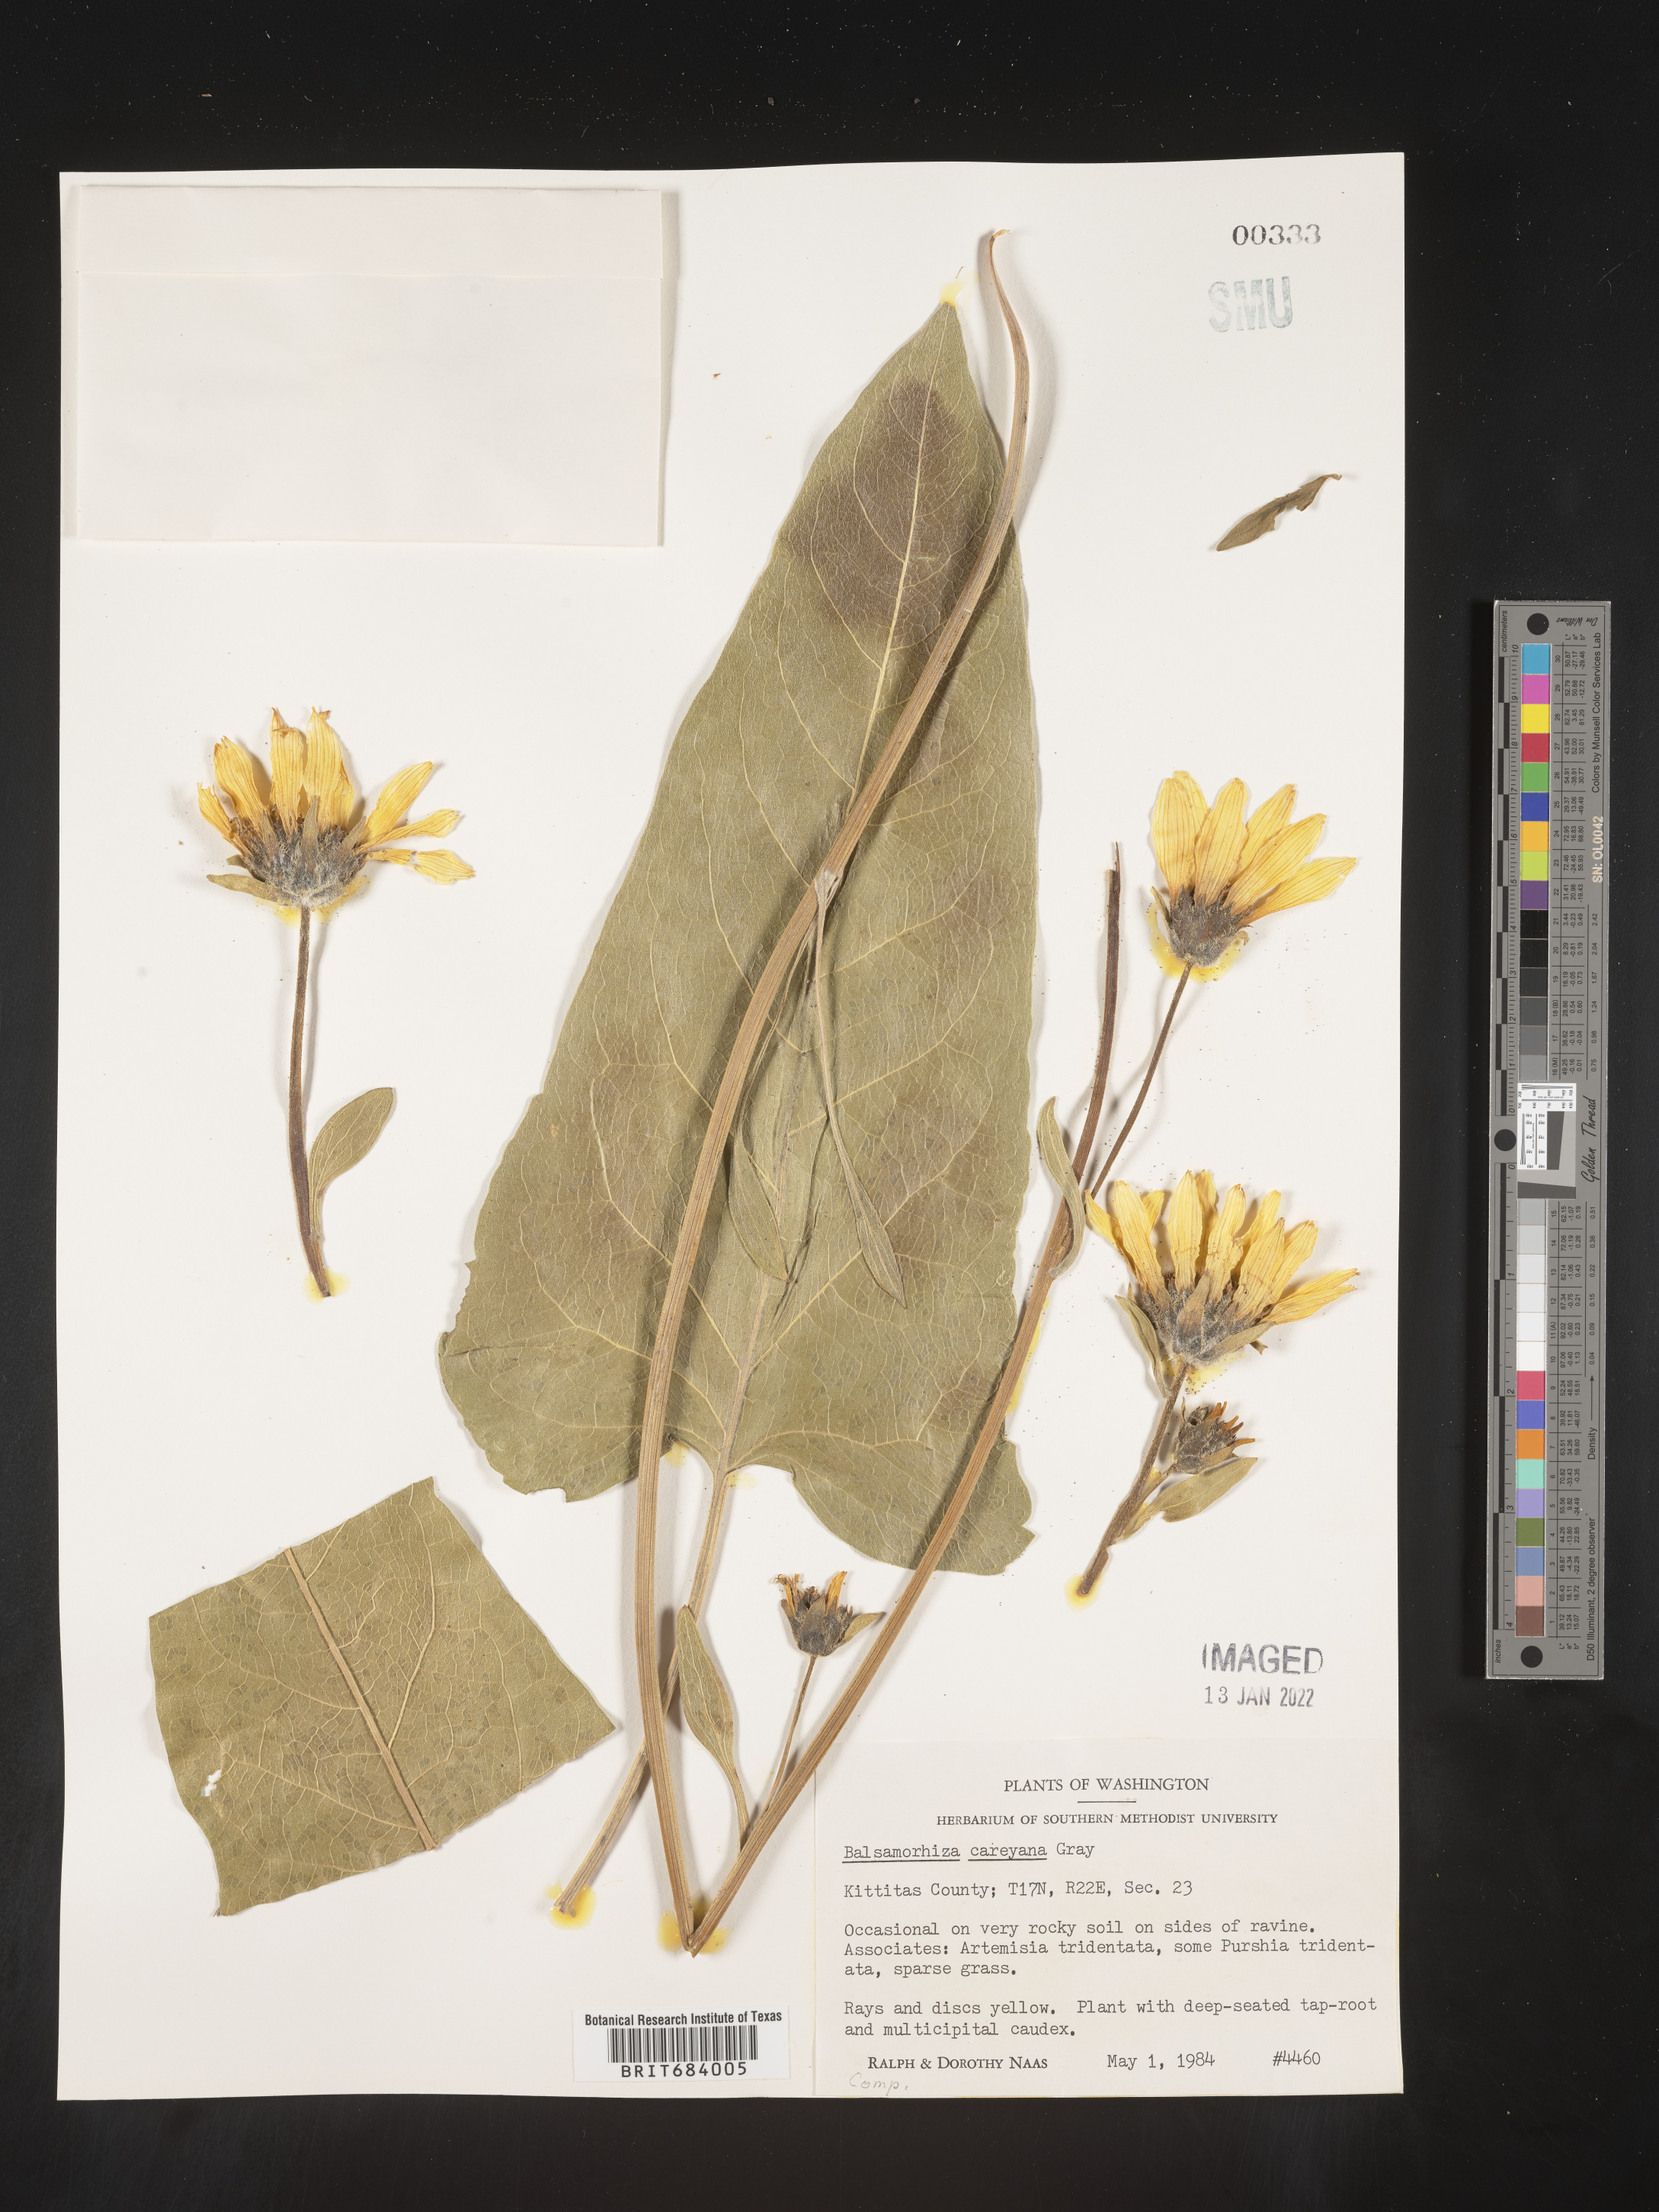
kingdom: Plantae
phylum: Tracheophyta
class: Magnoliopsida
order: Asterales
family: Asteraceae
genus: Balsamorhiza
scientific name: Balsamorhiza
